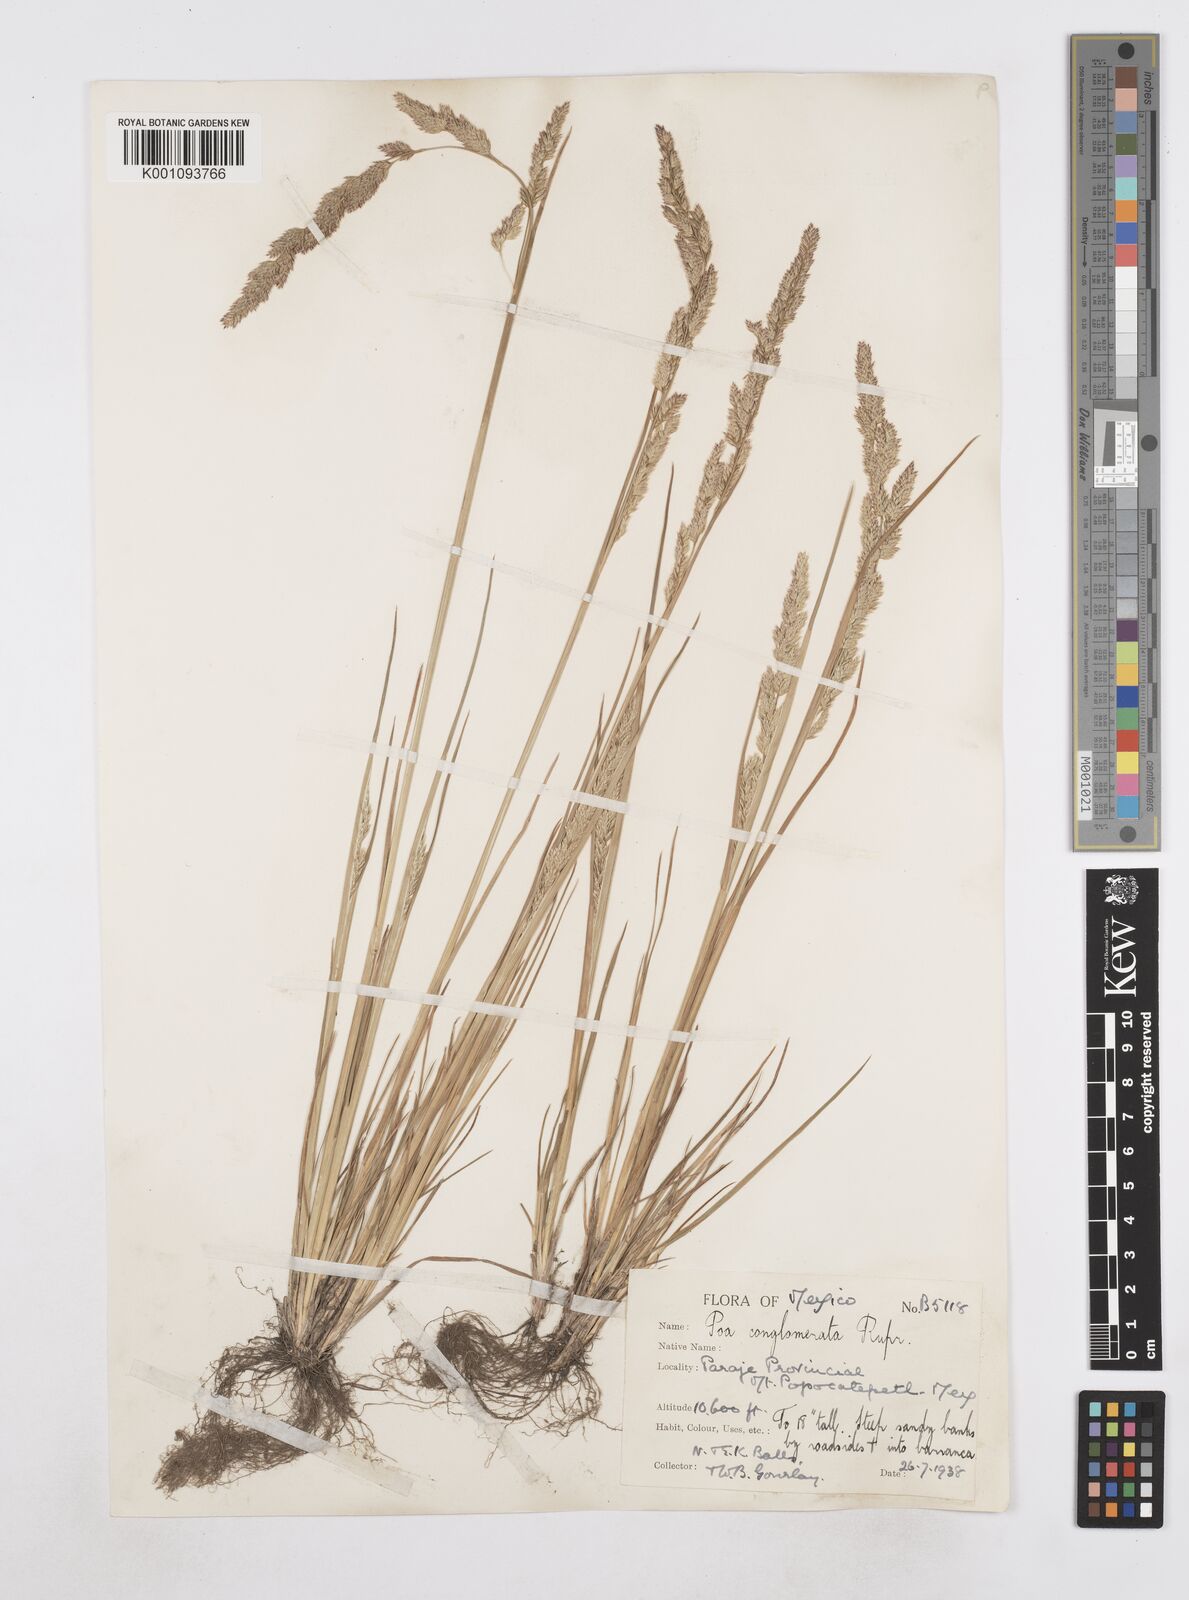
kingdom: Plantae
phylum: Tracheophyta
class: Liliopsida
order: Poales
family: Poaceae
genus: Poa
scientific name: Poa scaberula
